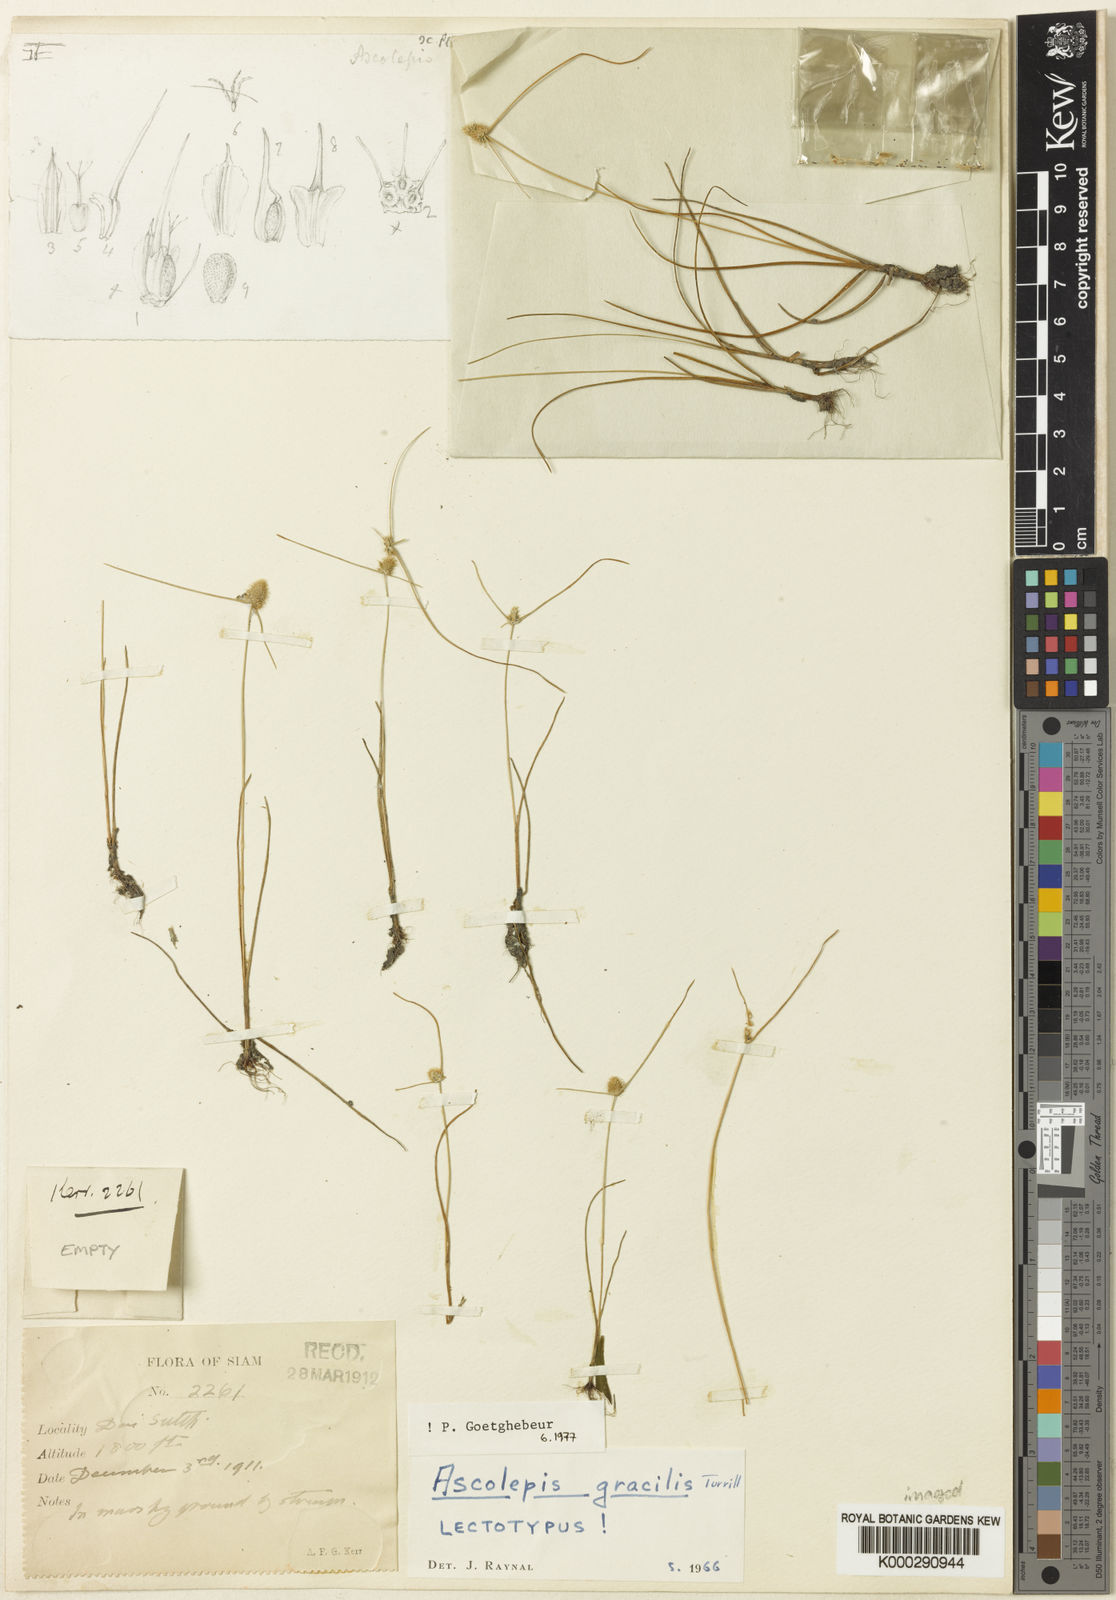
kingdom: Plantae
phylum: Tracheophyta
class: Liliopsida
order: Poales
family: Cyperaceae
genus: Cyperus
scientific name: Cyperus dipsacoides
